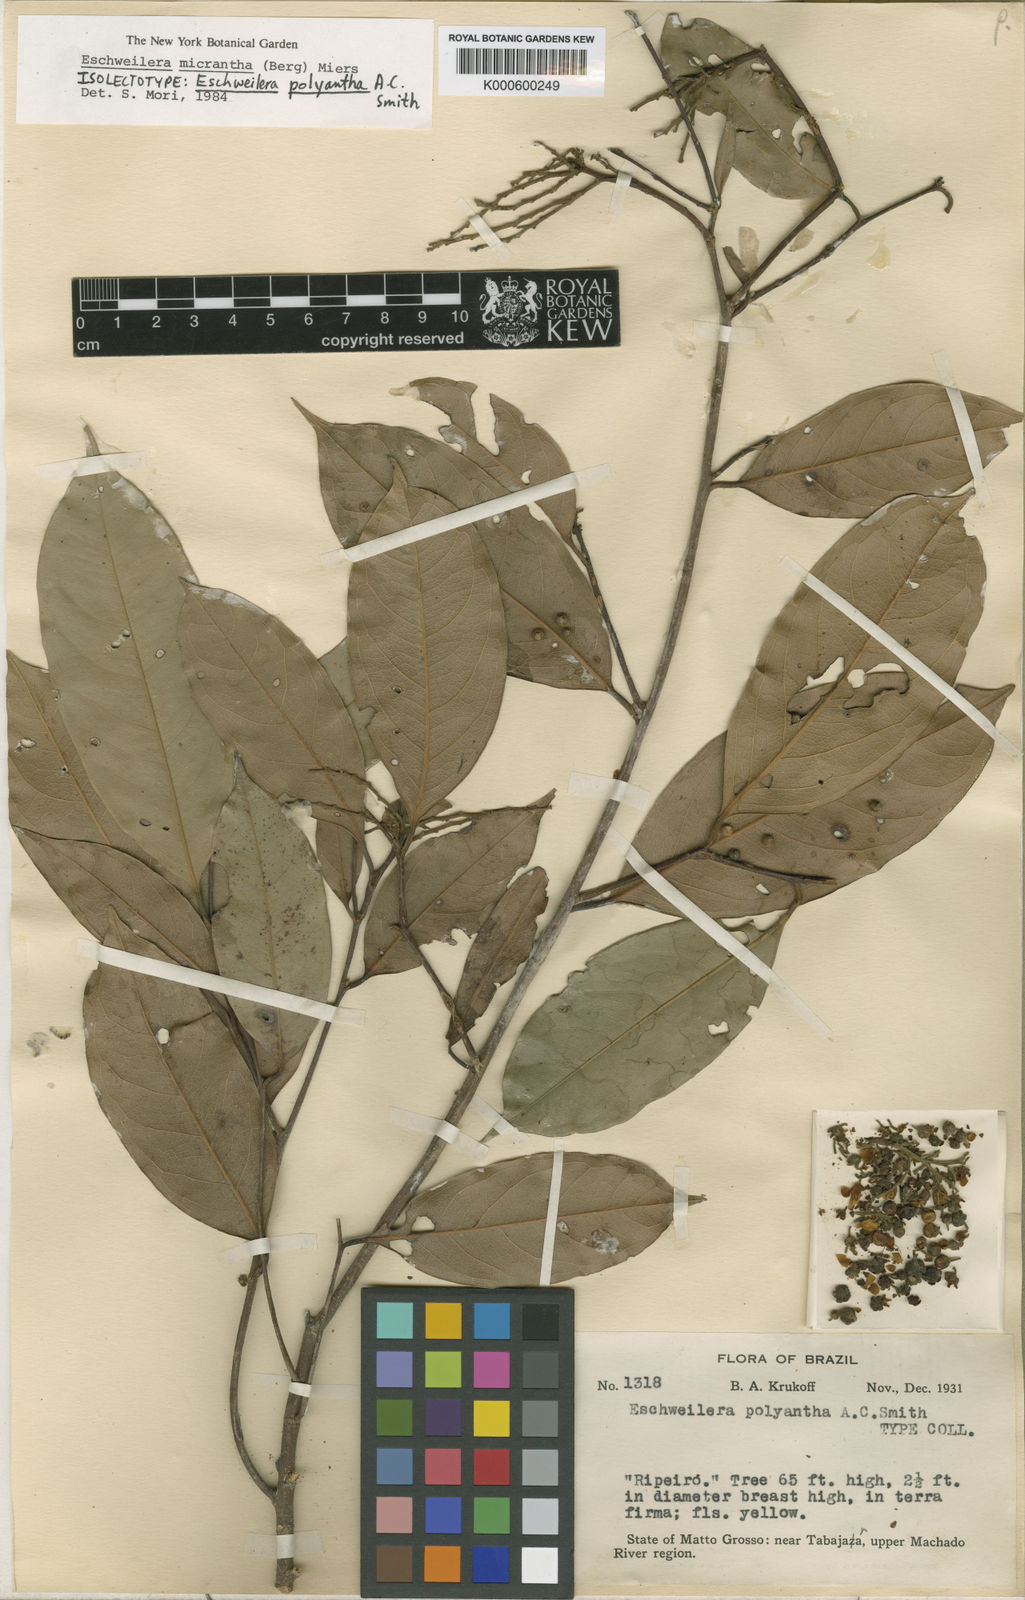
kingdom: Plantae
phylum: Tracheophyta
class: Magnoliopsida
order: Ericales
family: Lecythidaceae
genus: Eschweilera
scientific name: Eschweilera micrantha
